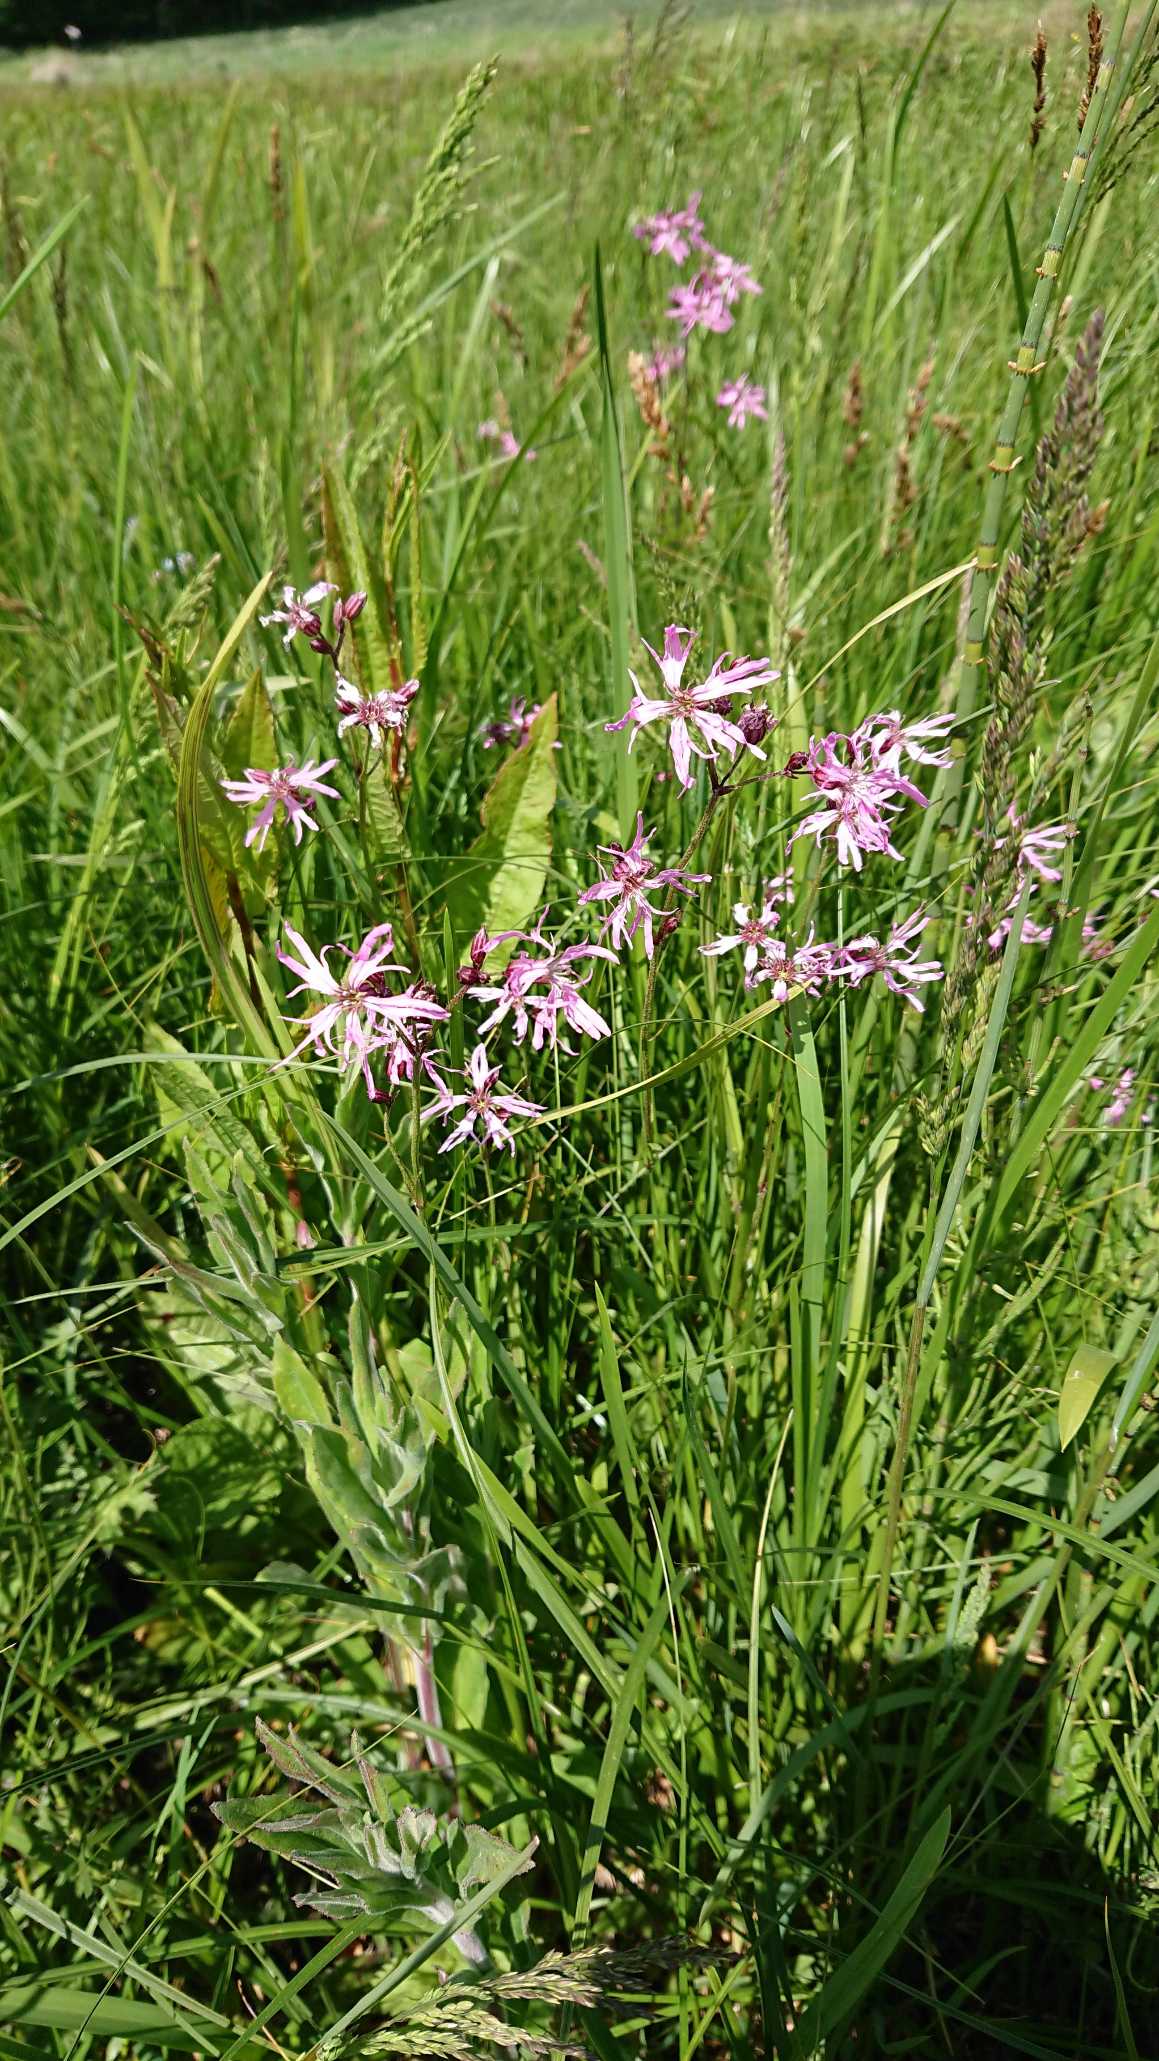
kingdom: Plantae
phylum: Tracheophyta
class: Magnoliopsida
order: Caryophyllales
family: Caryophyllaceae
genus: Silene
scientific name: Silene flos-cuculi
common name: Trævlekrone
